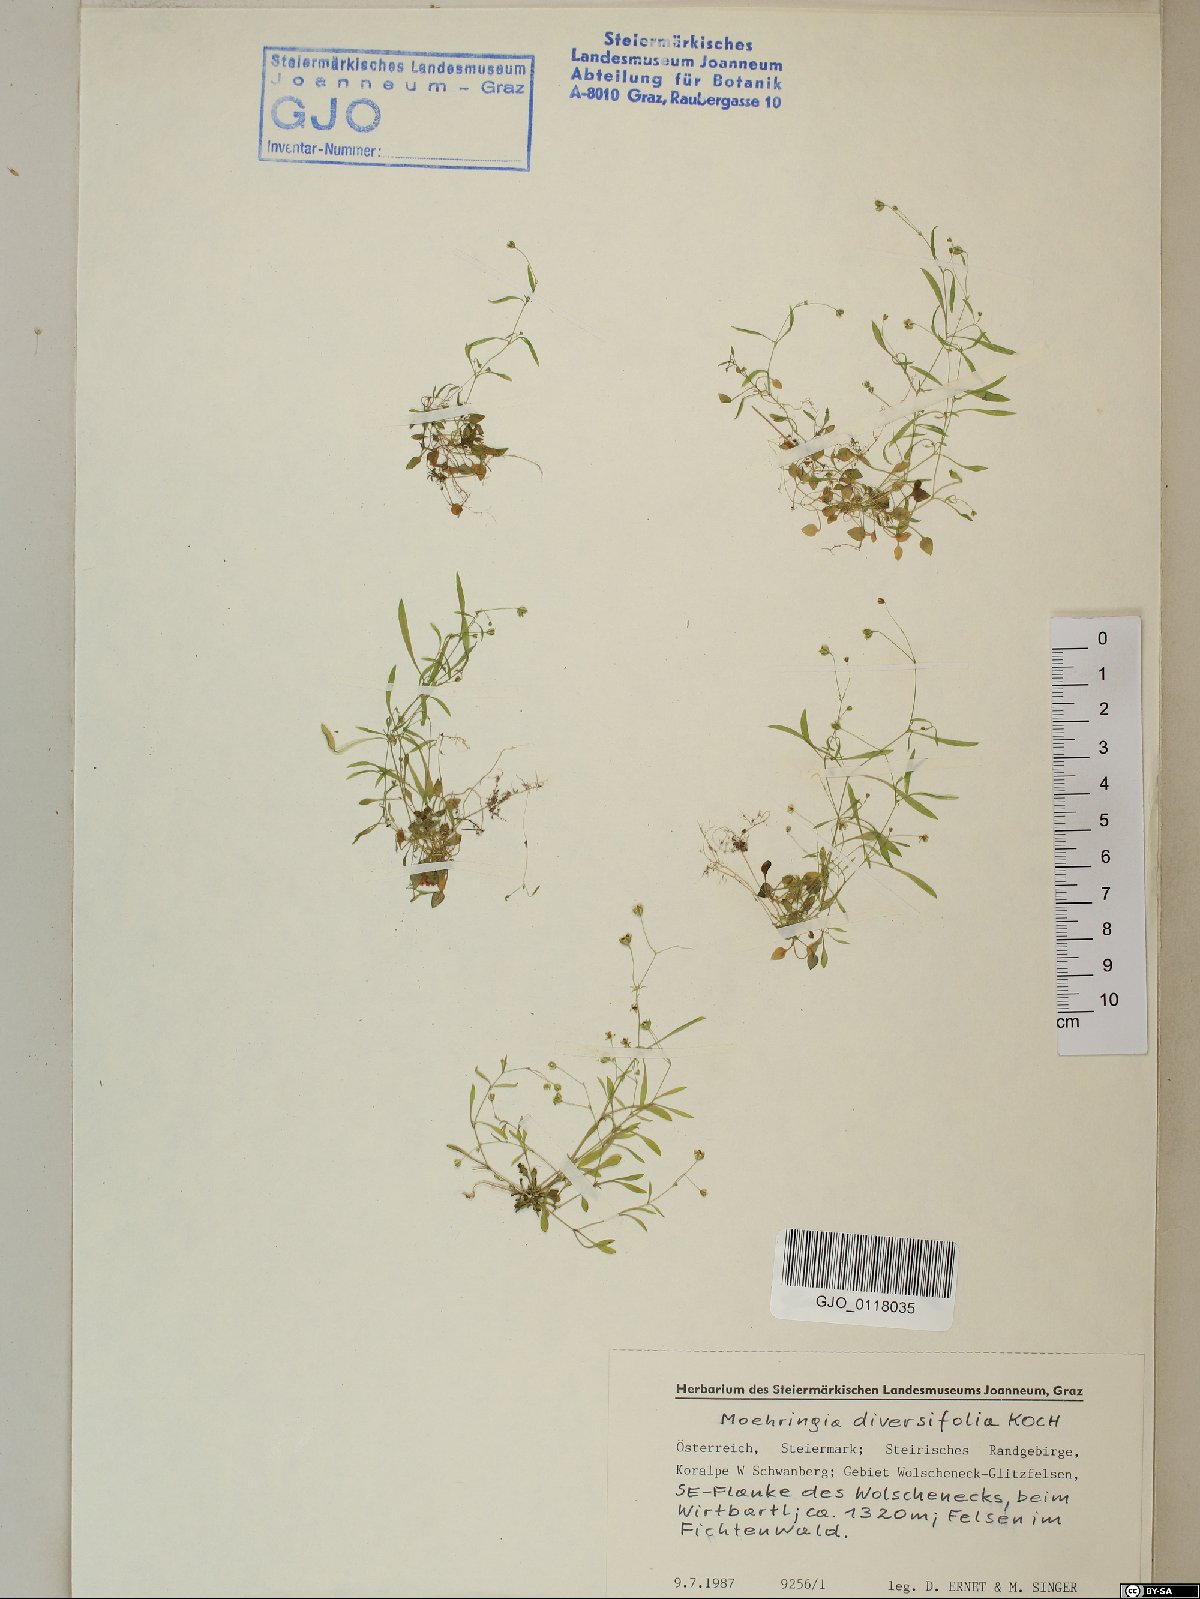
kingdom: Plantae
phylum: Tracheophyta
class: Magnoliopsida
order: Caryophyllales
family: Caryophyllaceae
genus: Moehringia
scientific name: Moehringia diversifolia
